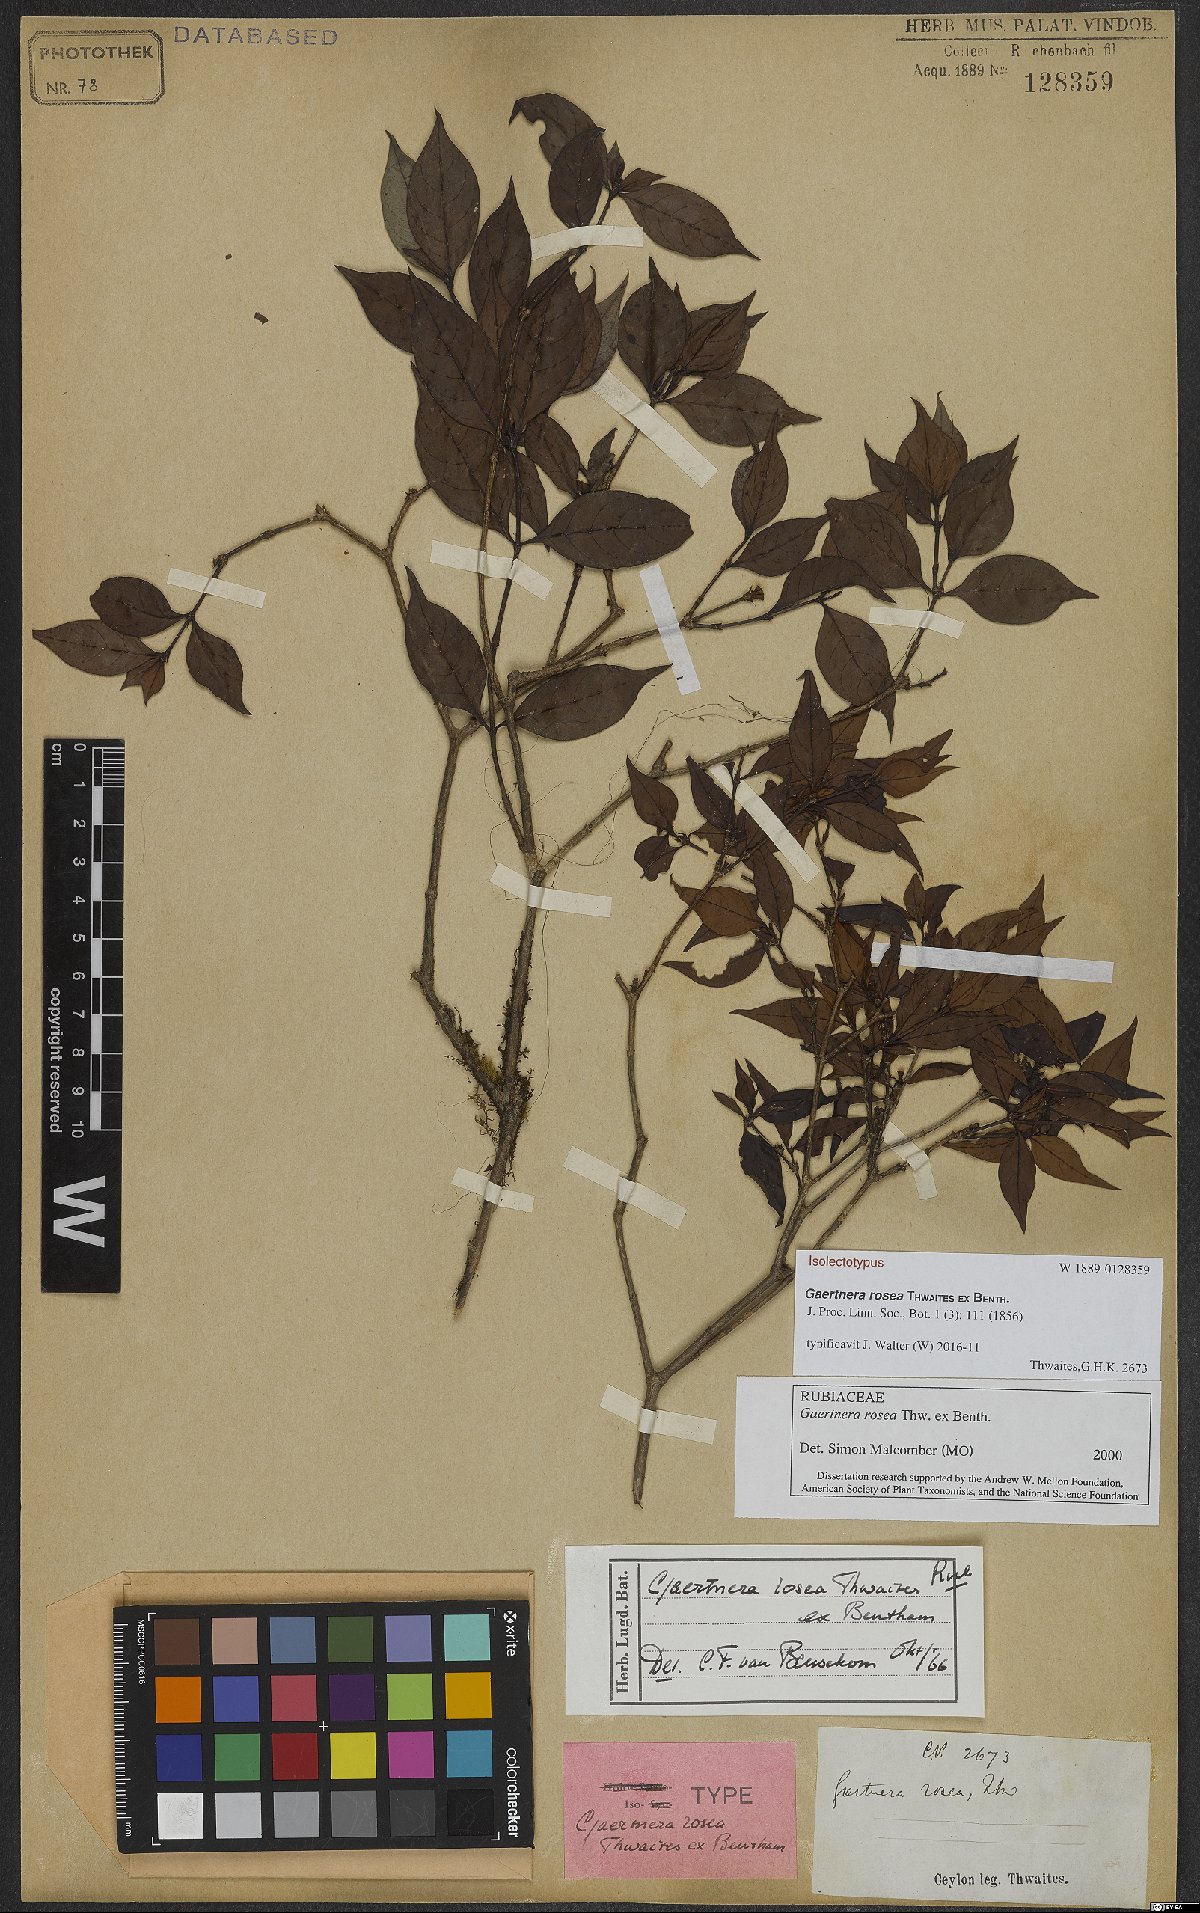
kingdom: Plantae
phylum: Tracheophyta
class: Magnoliopsida
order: Gentianales
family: Rubiaceae
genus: Gaertnera
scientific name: Gaertnera rosea
